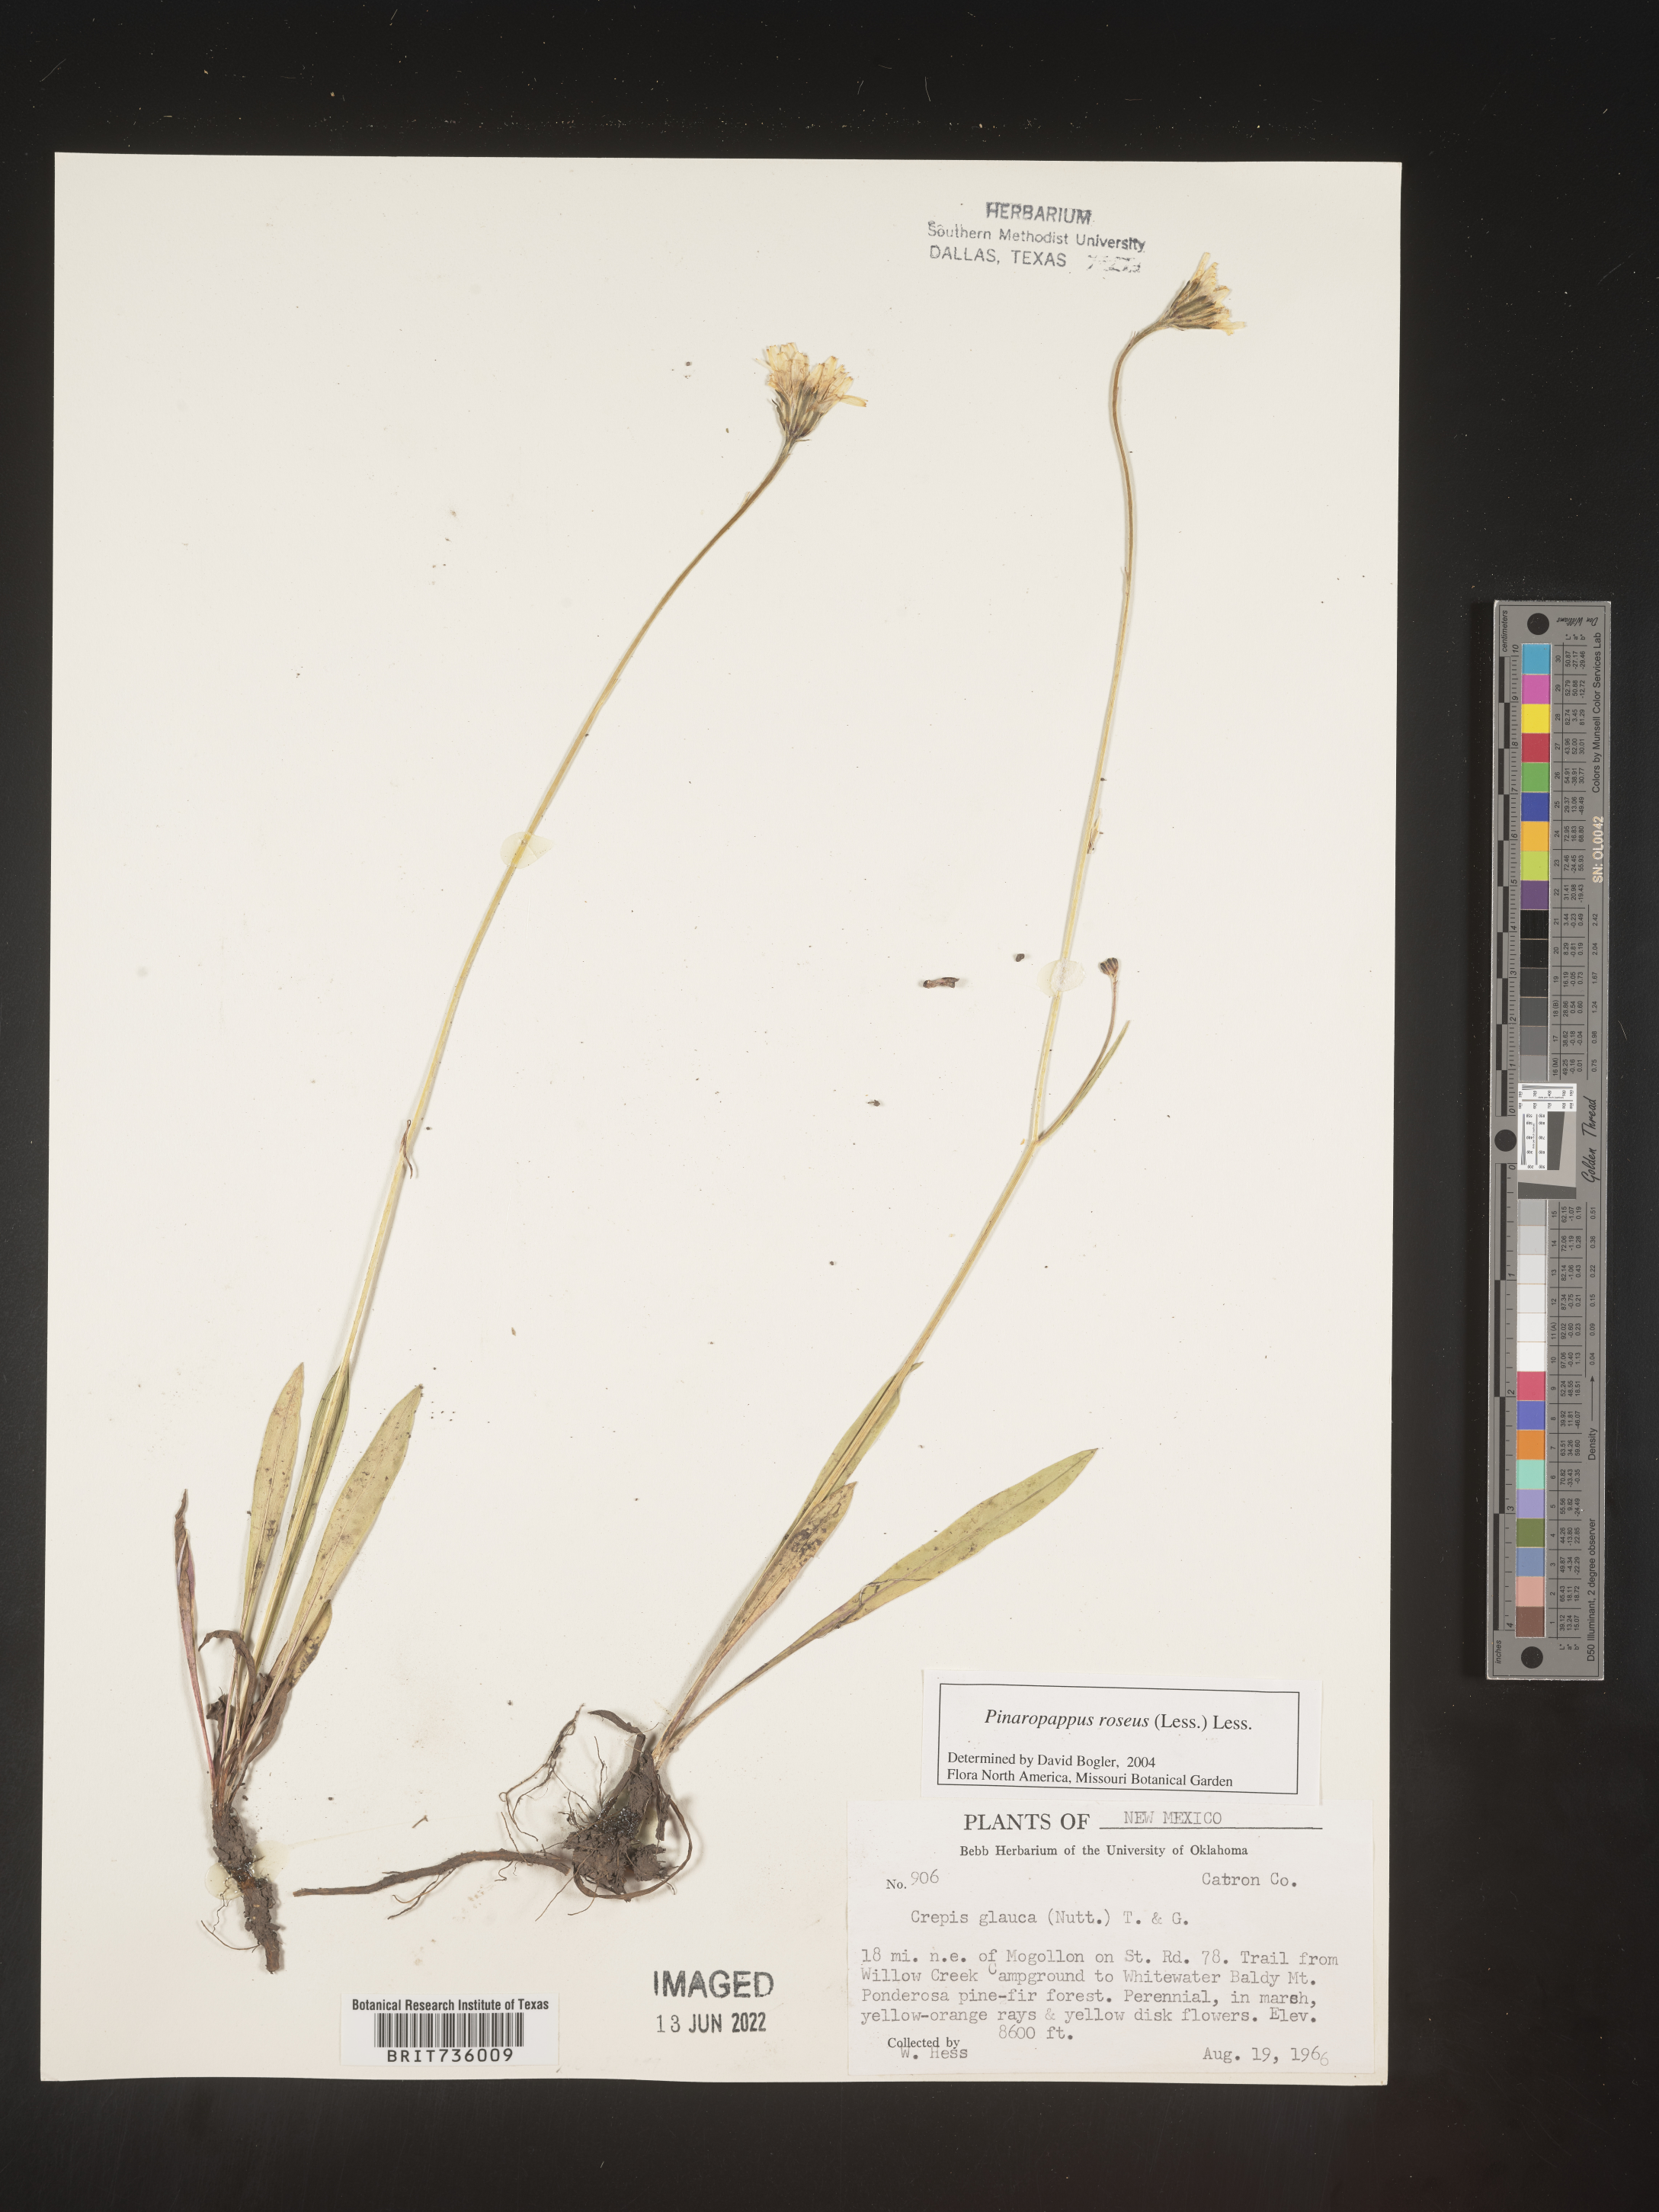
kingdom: Plantae
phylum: Tracheophyta
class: Magnoliopsida
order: Asterales
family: Asteraceae
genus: Pinaropappus
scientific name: Pinaropappus
